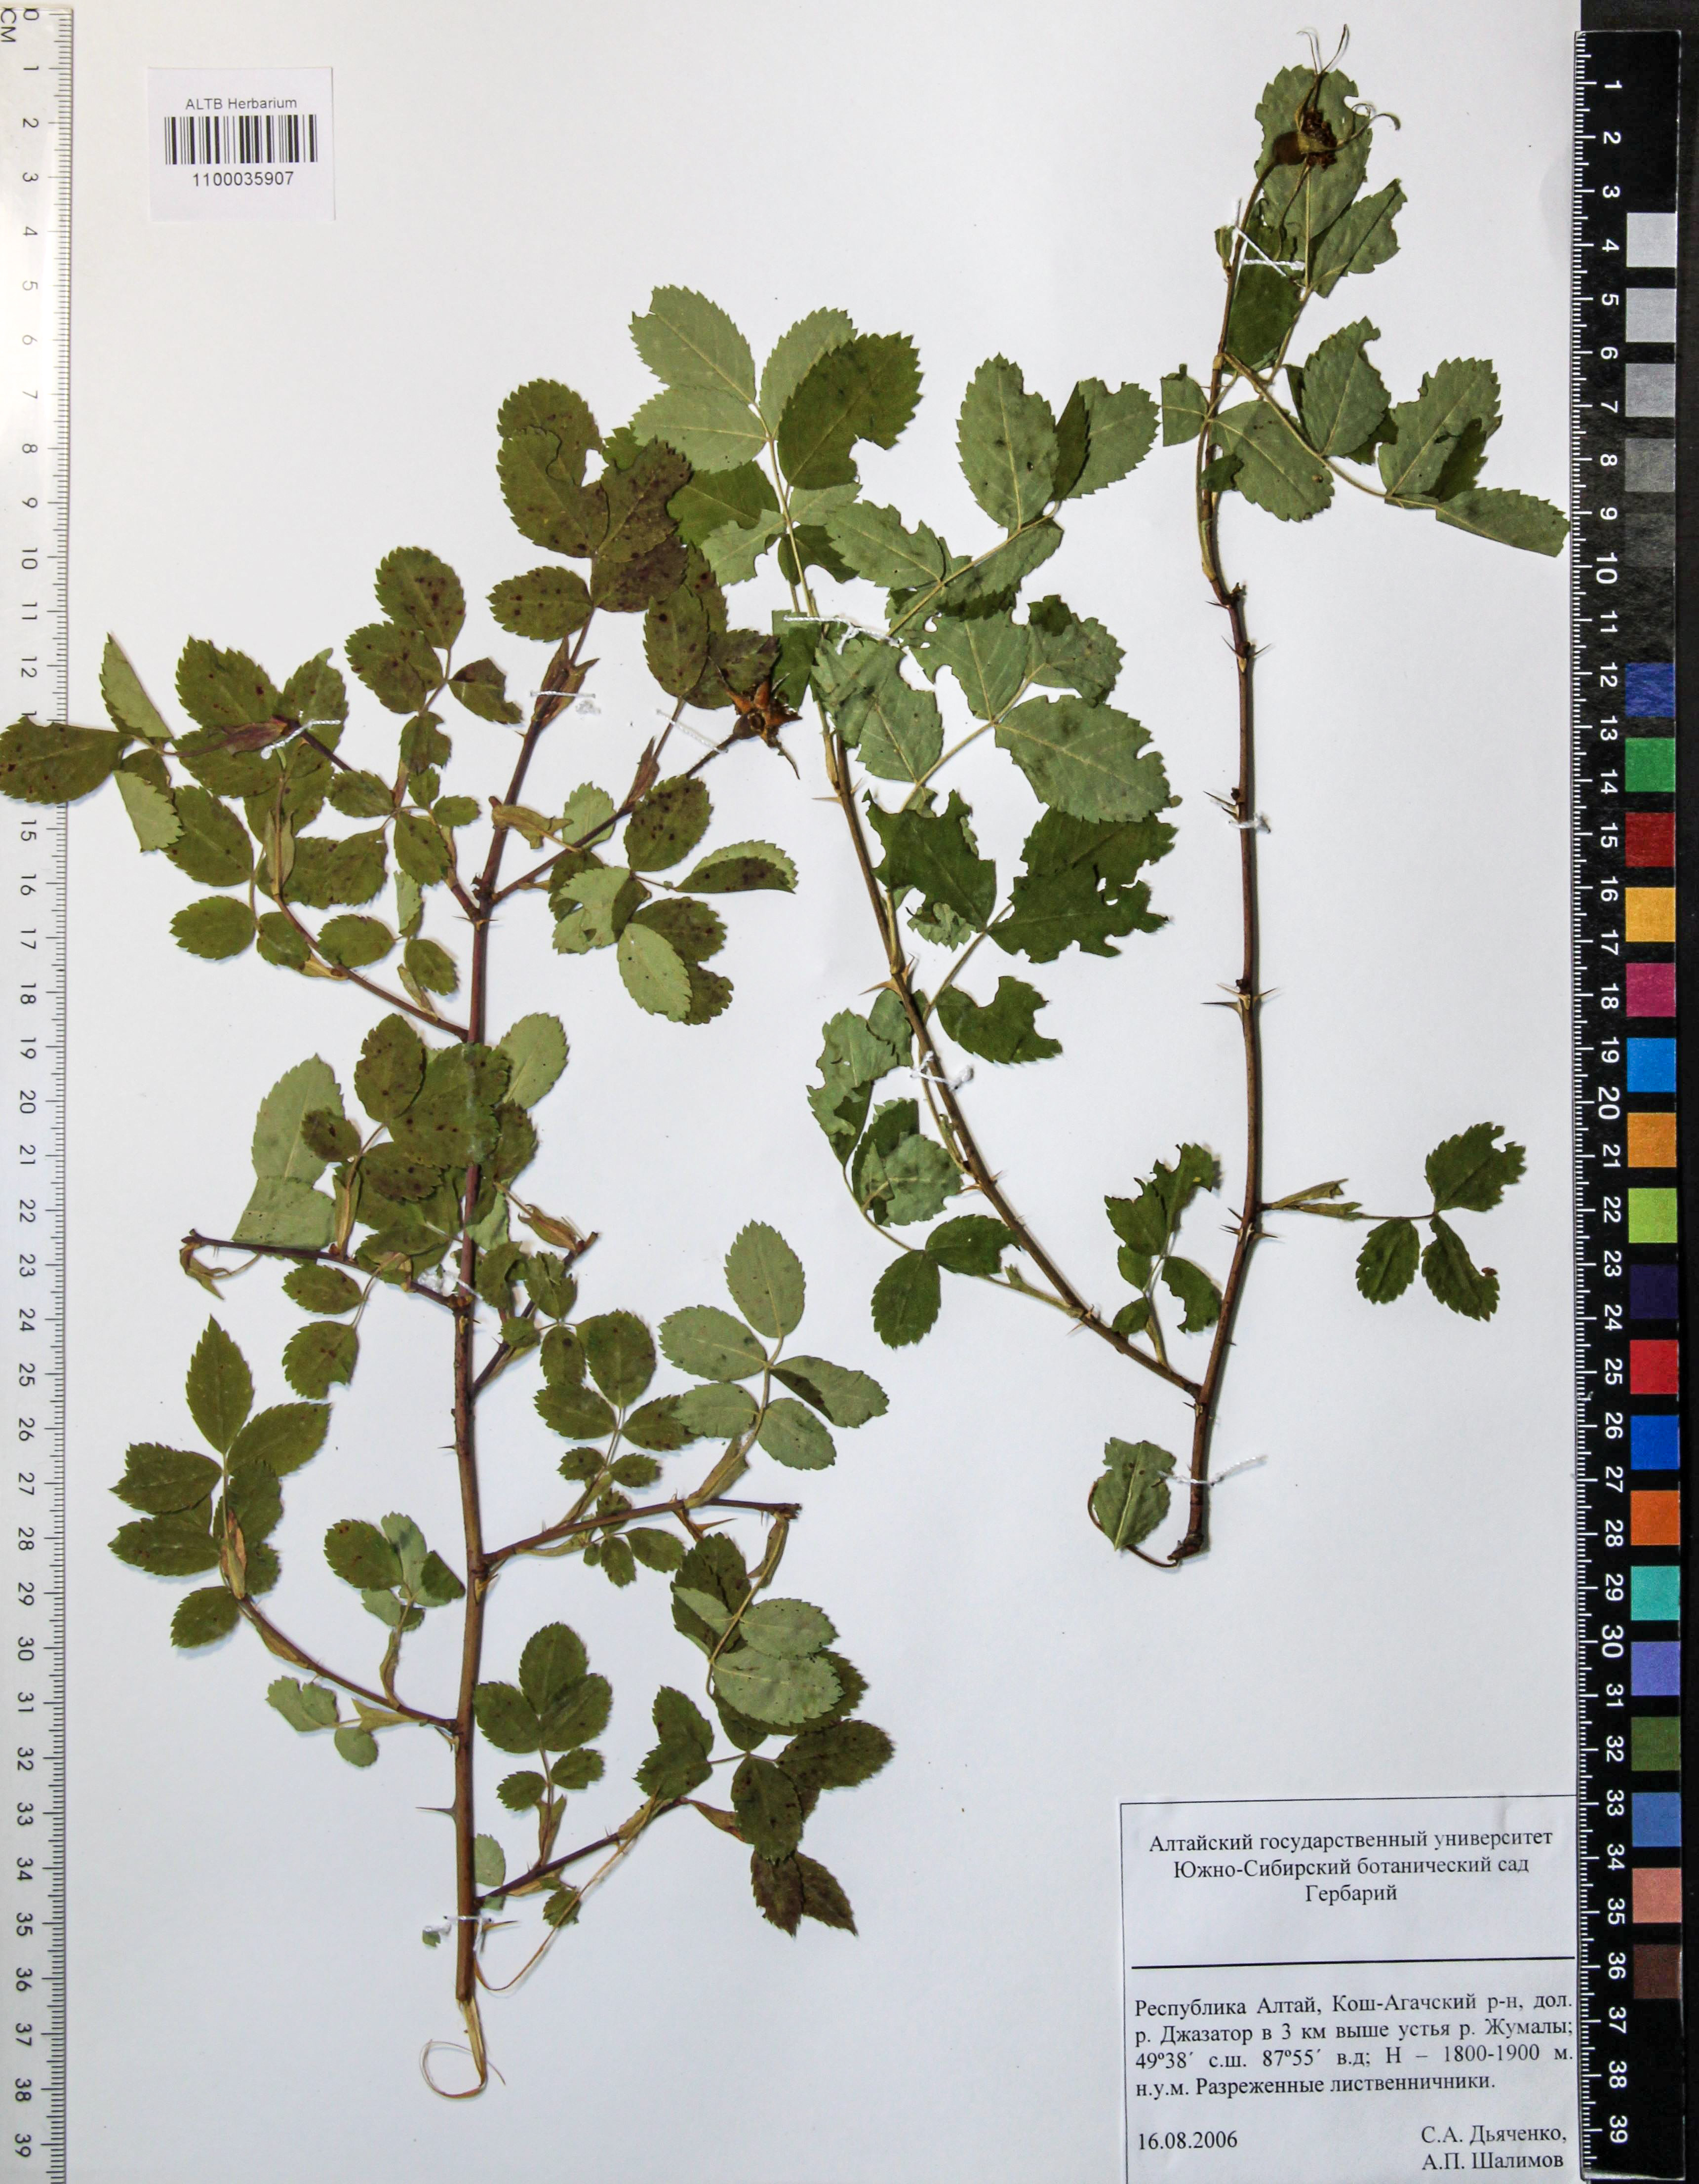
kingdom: Plantae
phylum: Tracheophyta
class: Magnoliopsida
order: Rosales
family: Rosaceae
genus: Rosa
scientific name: Rosa acicularis
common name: Prickly rose
